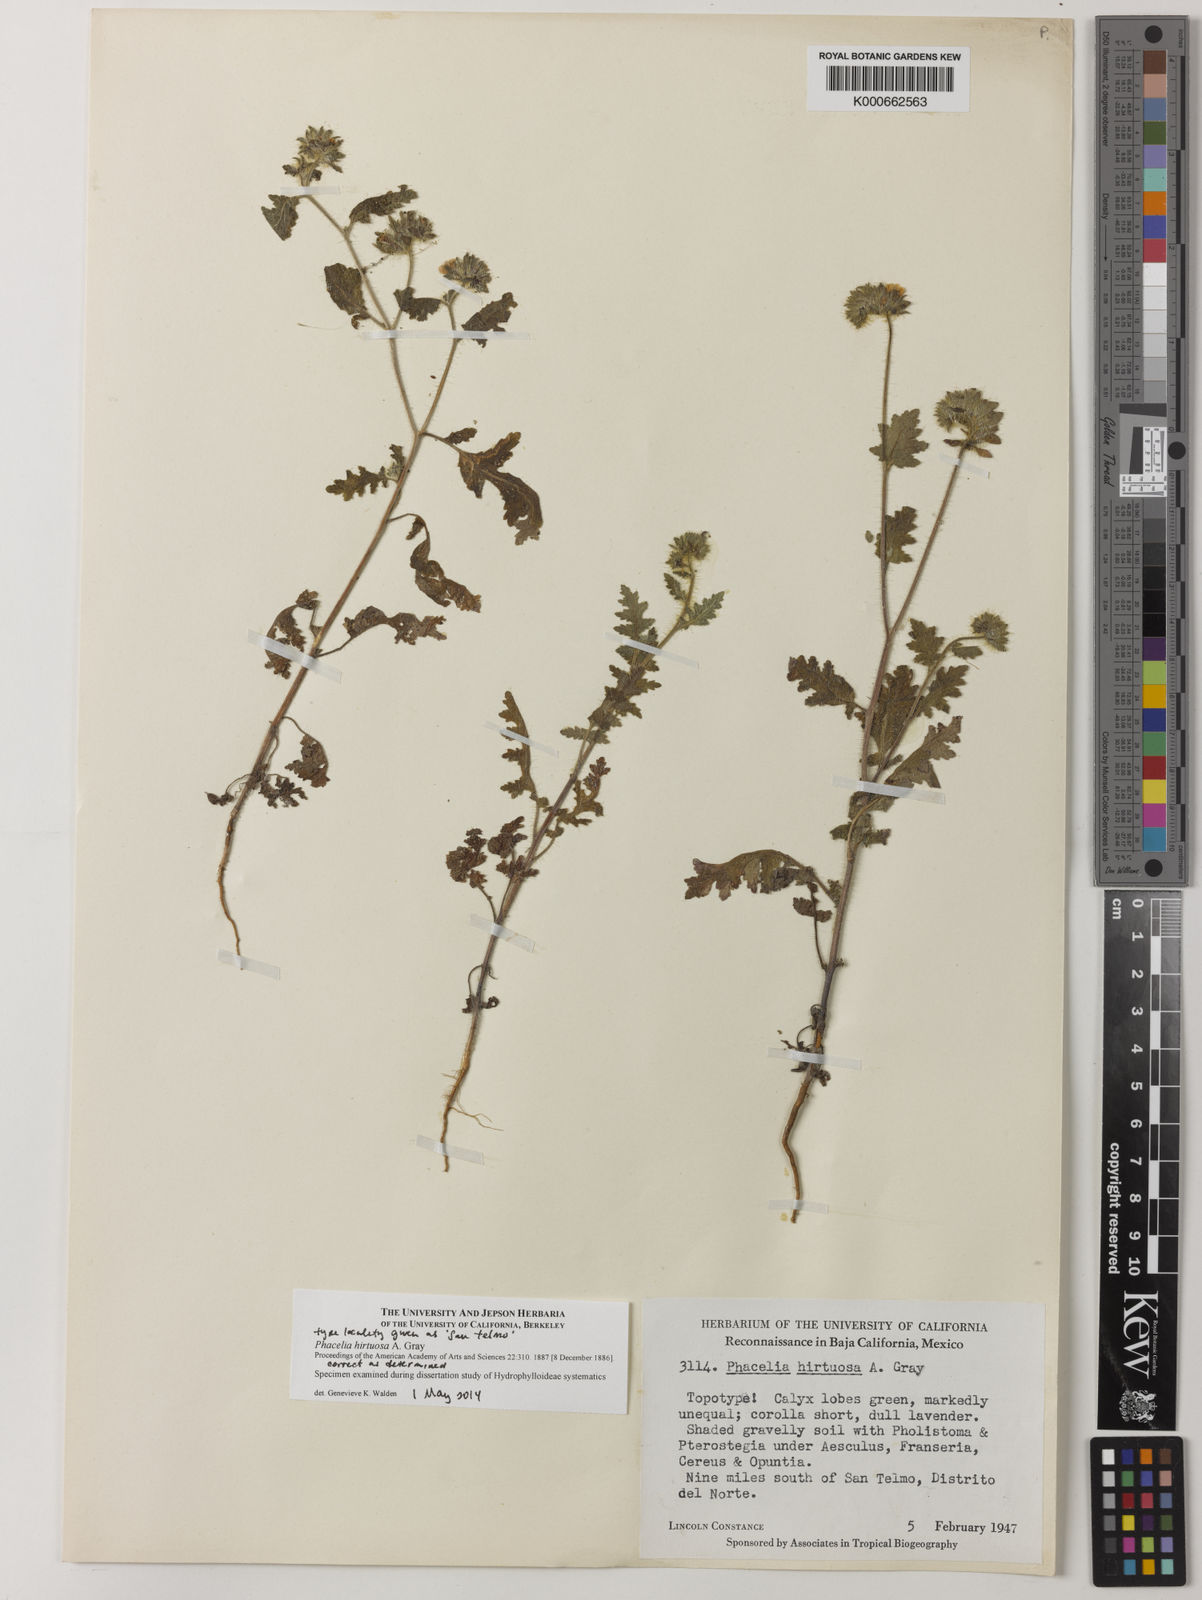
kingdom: Plantae
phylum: Tracheophyta
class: Magnoliopsida
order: Boraginales
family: Hydrophyllaceae
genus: Phacelia
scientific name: Phacelia hirtuosa
